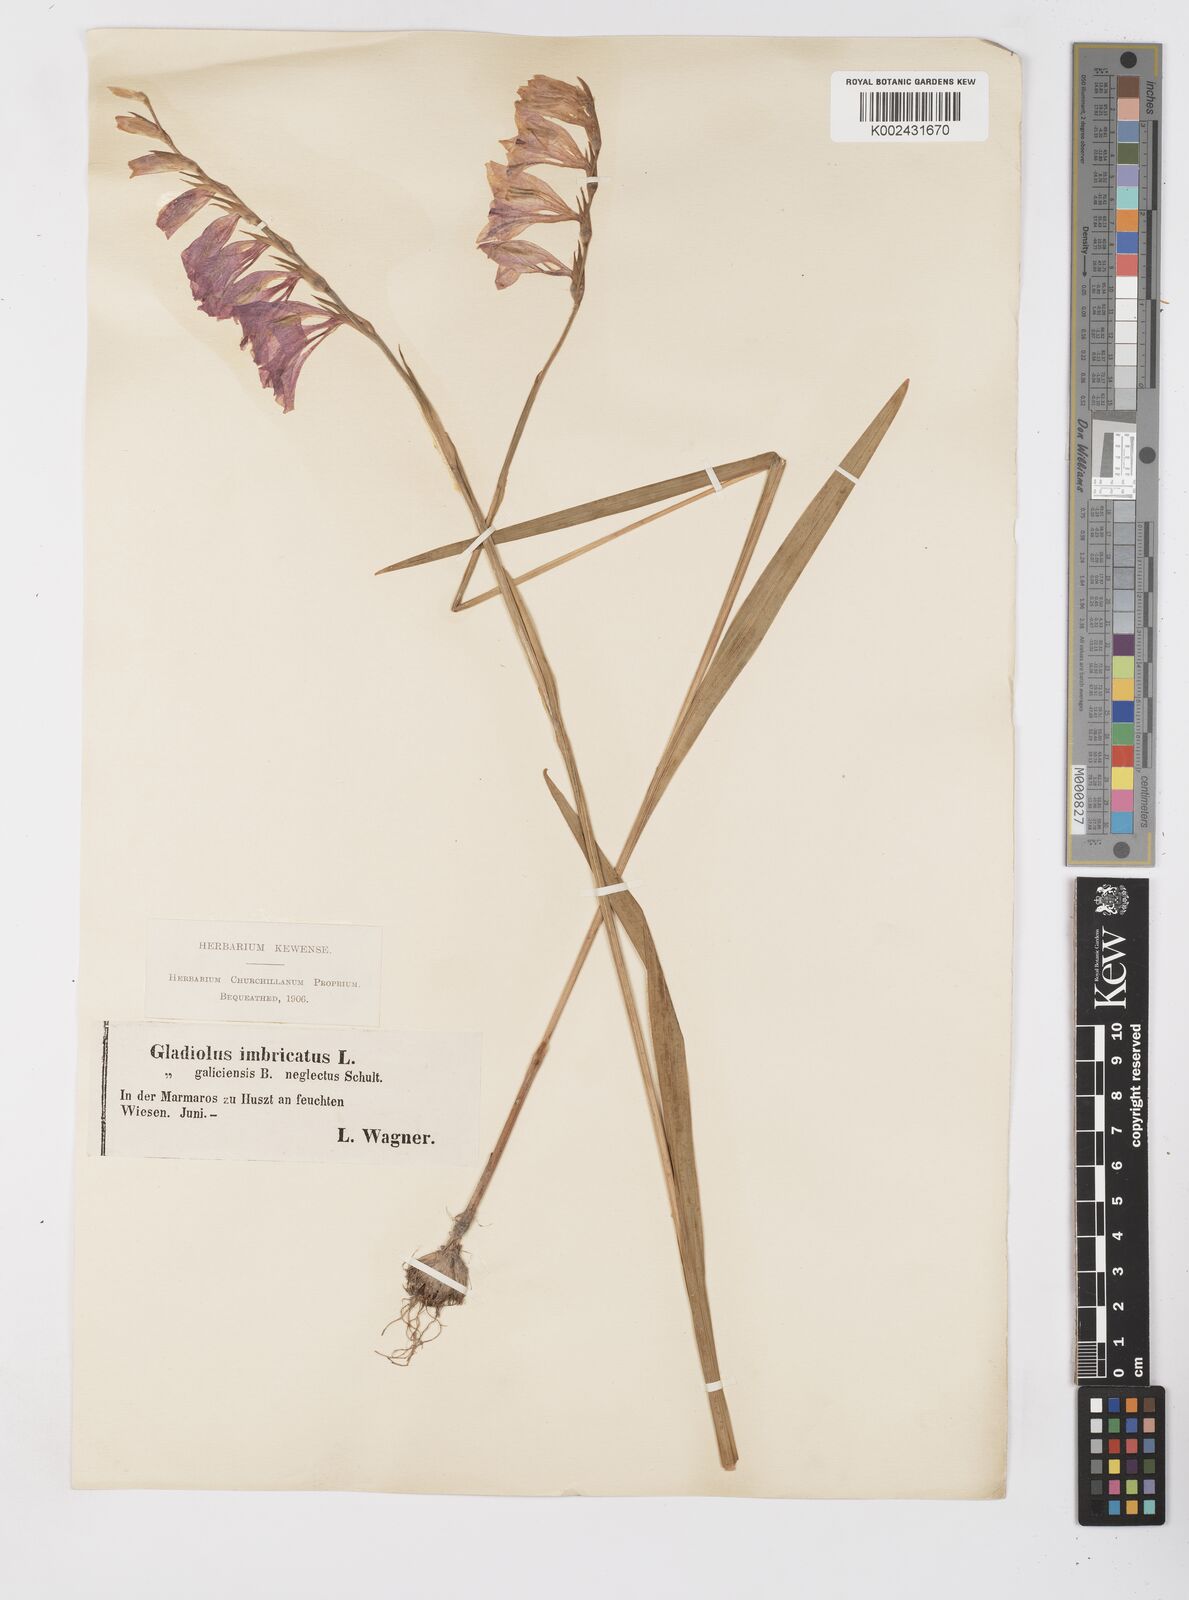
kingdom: Plantae
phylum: Tracheophyta
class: Liliopsida
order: Asparagales
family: Iridaceae
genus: Gladiolus
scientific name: Gladiolus imbricatus
